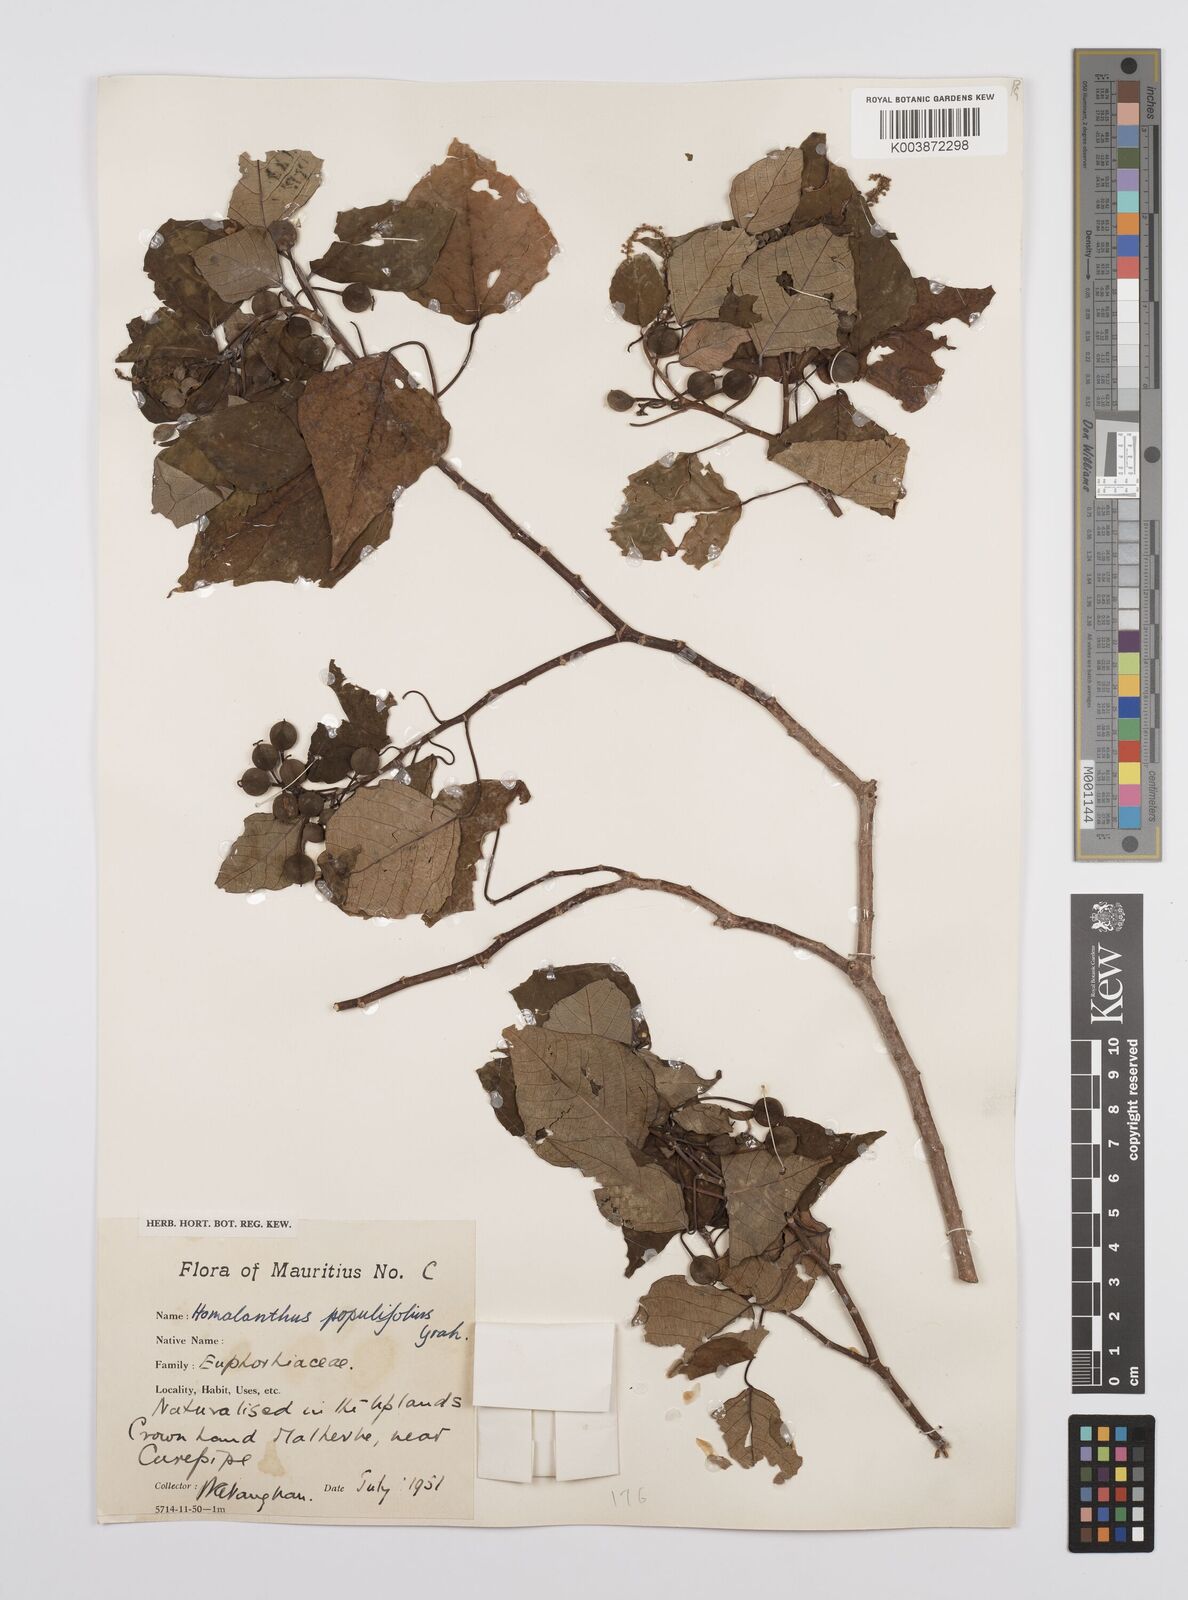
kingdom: Plantae
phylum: Tracheophyta
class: Magnoliopsida
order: Malpighiales
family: Euphorbiaceae
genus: Homalanthus
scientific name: Homalanthus populifolius
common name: Queensland poplar
